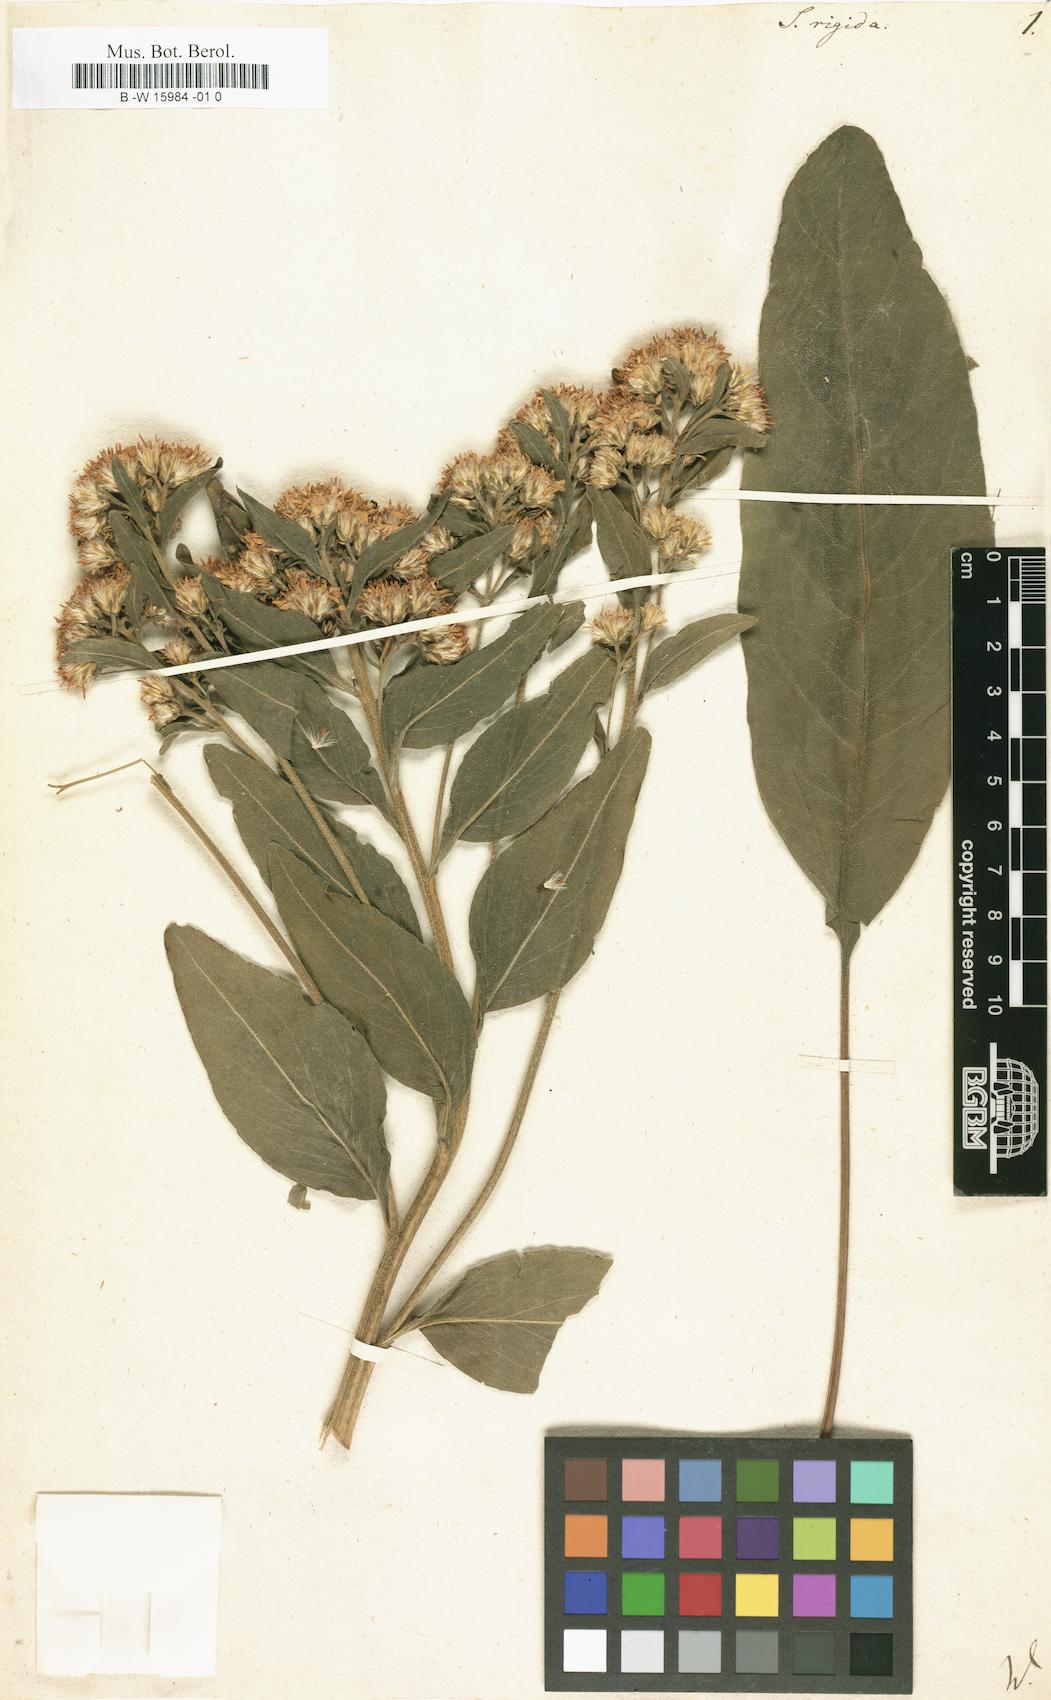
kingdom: Plantae
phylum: Tracheophyta
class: Magnoliopsida
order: Asterales
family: Asteraceae
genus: Solidago
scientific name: Solidago rigida
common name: Rigid goldenrod
